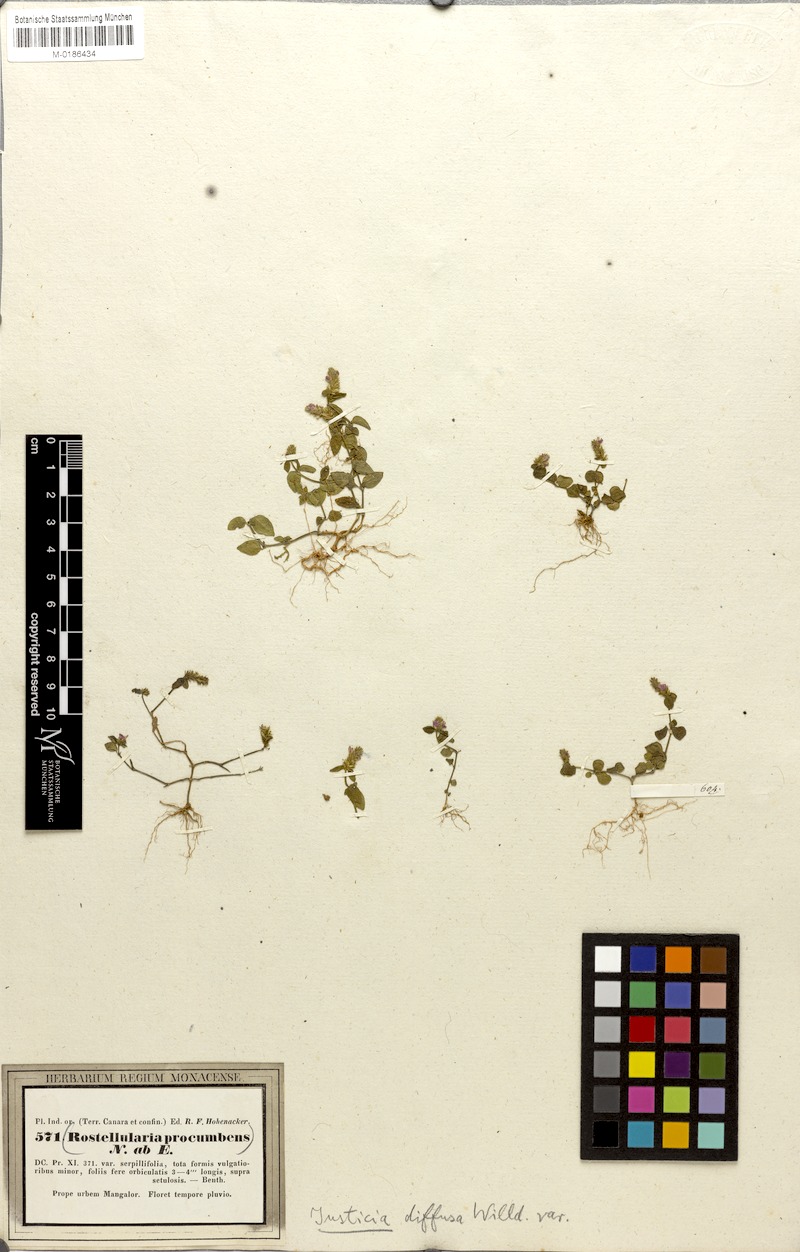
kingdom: Plantae
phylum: Tracheophyta
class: Magnoliopsida
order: Lamiales
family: Acanthaceae
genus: Rostellularia
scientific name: Rostellularia procumbens
